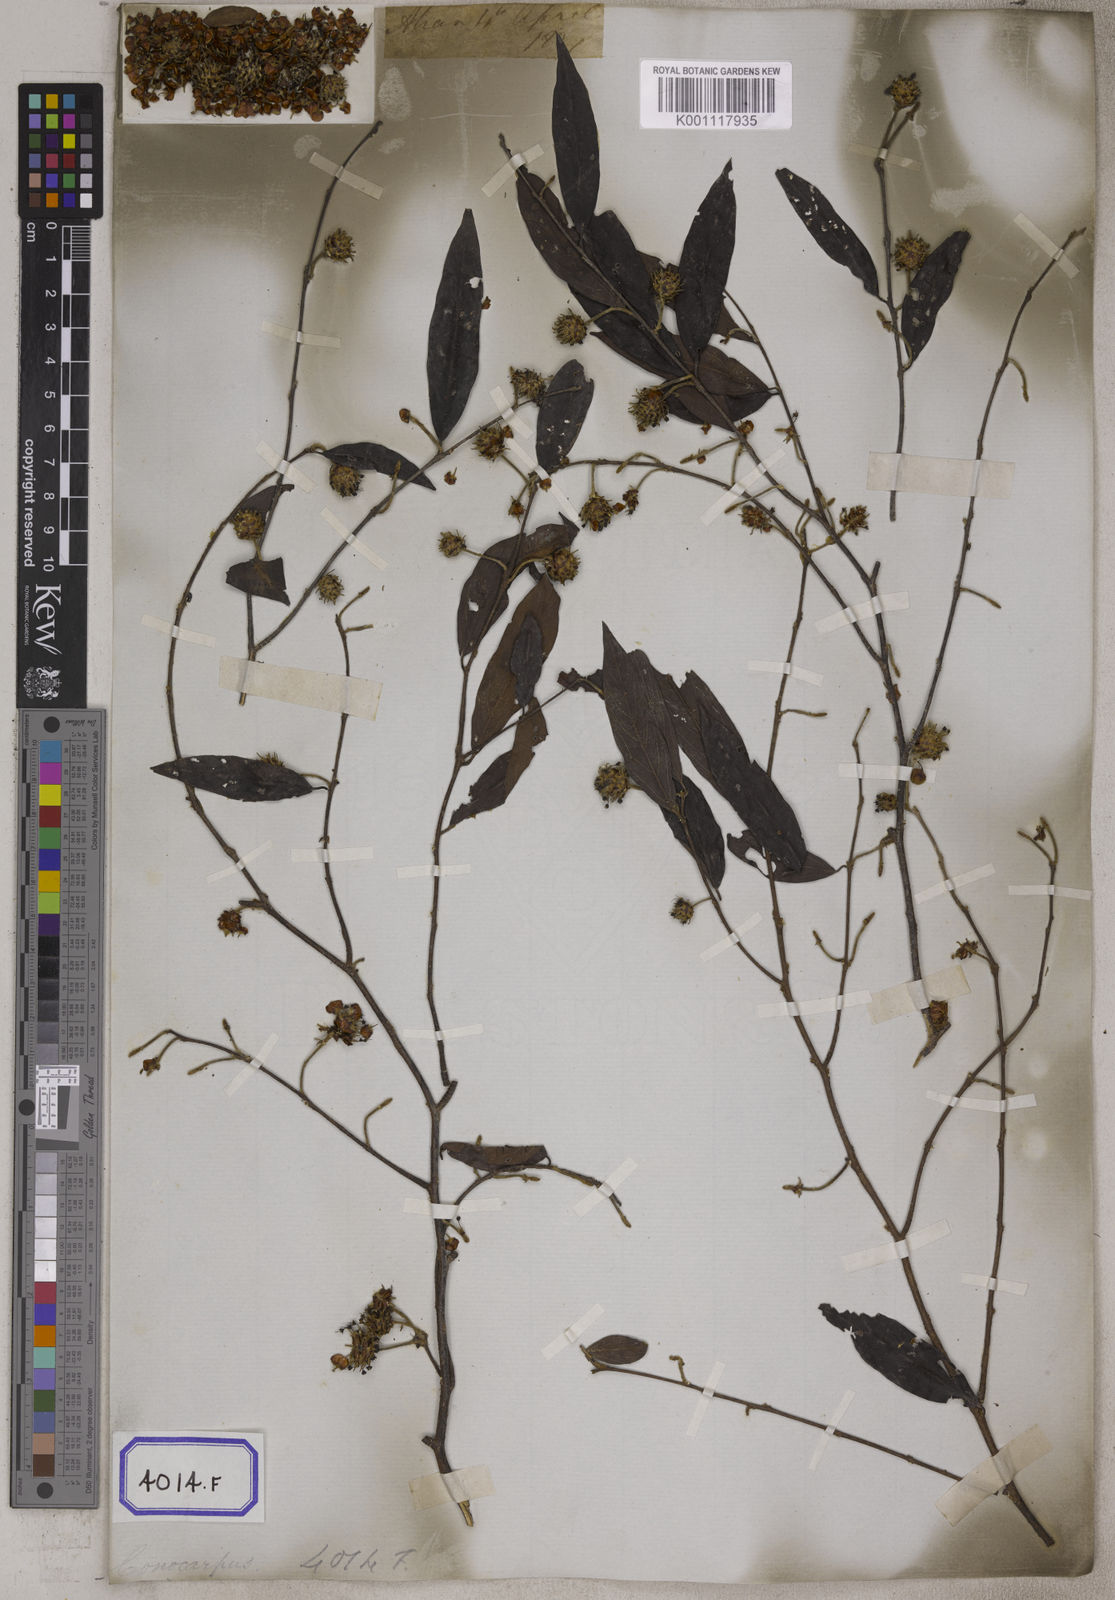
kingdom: Plantae
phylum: Tracheophyta
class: Magnoliopsida
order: Myrtales
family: Combretaceae
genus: Anogeissus
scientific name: Anogeissus
